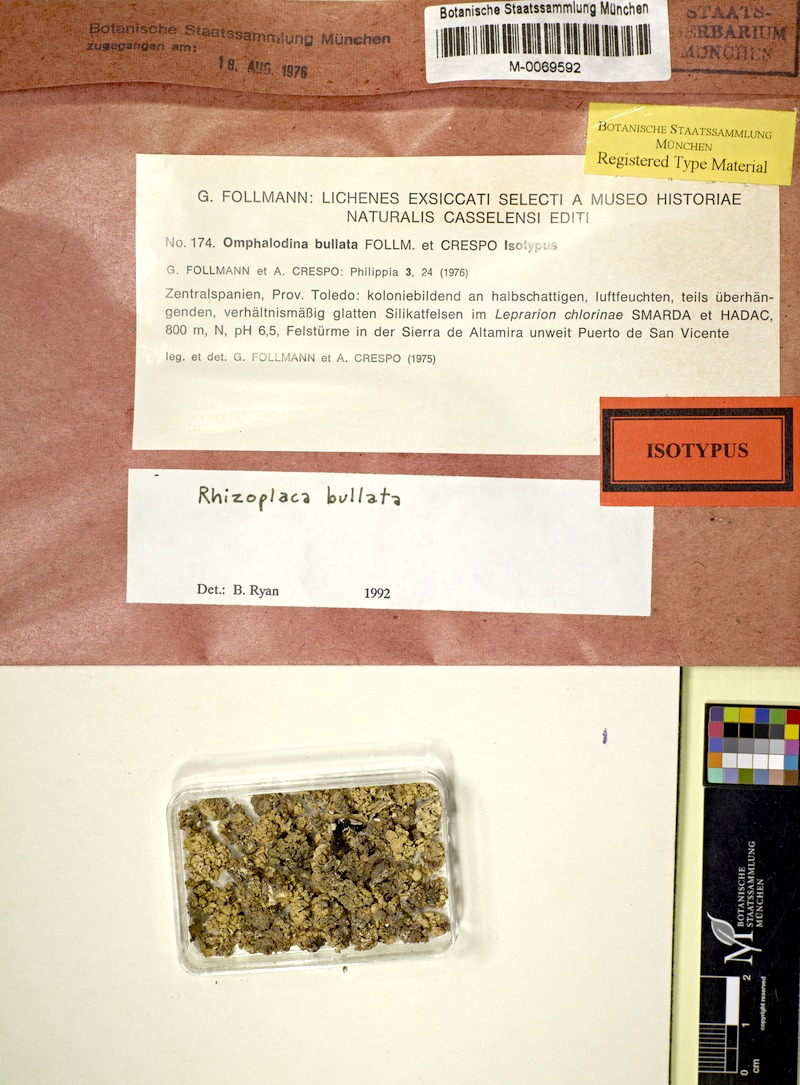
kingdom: Fungi
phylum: Ascomycota
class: Lecanoromycetes
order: Lecanorales
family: Lecanoraceae
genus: Straminella
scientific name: Straminella bullata
